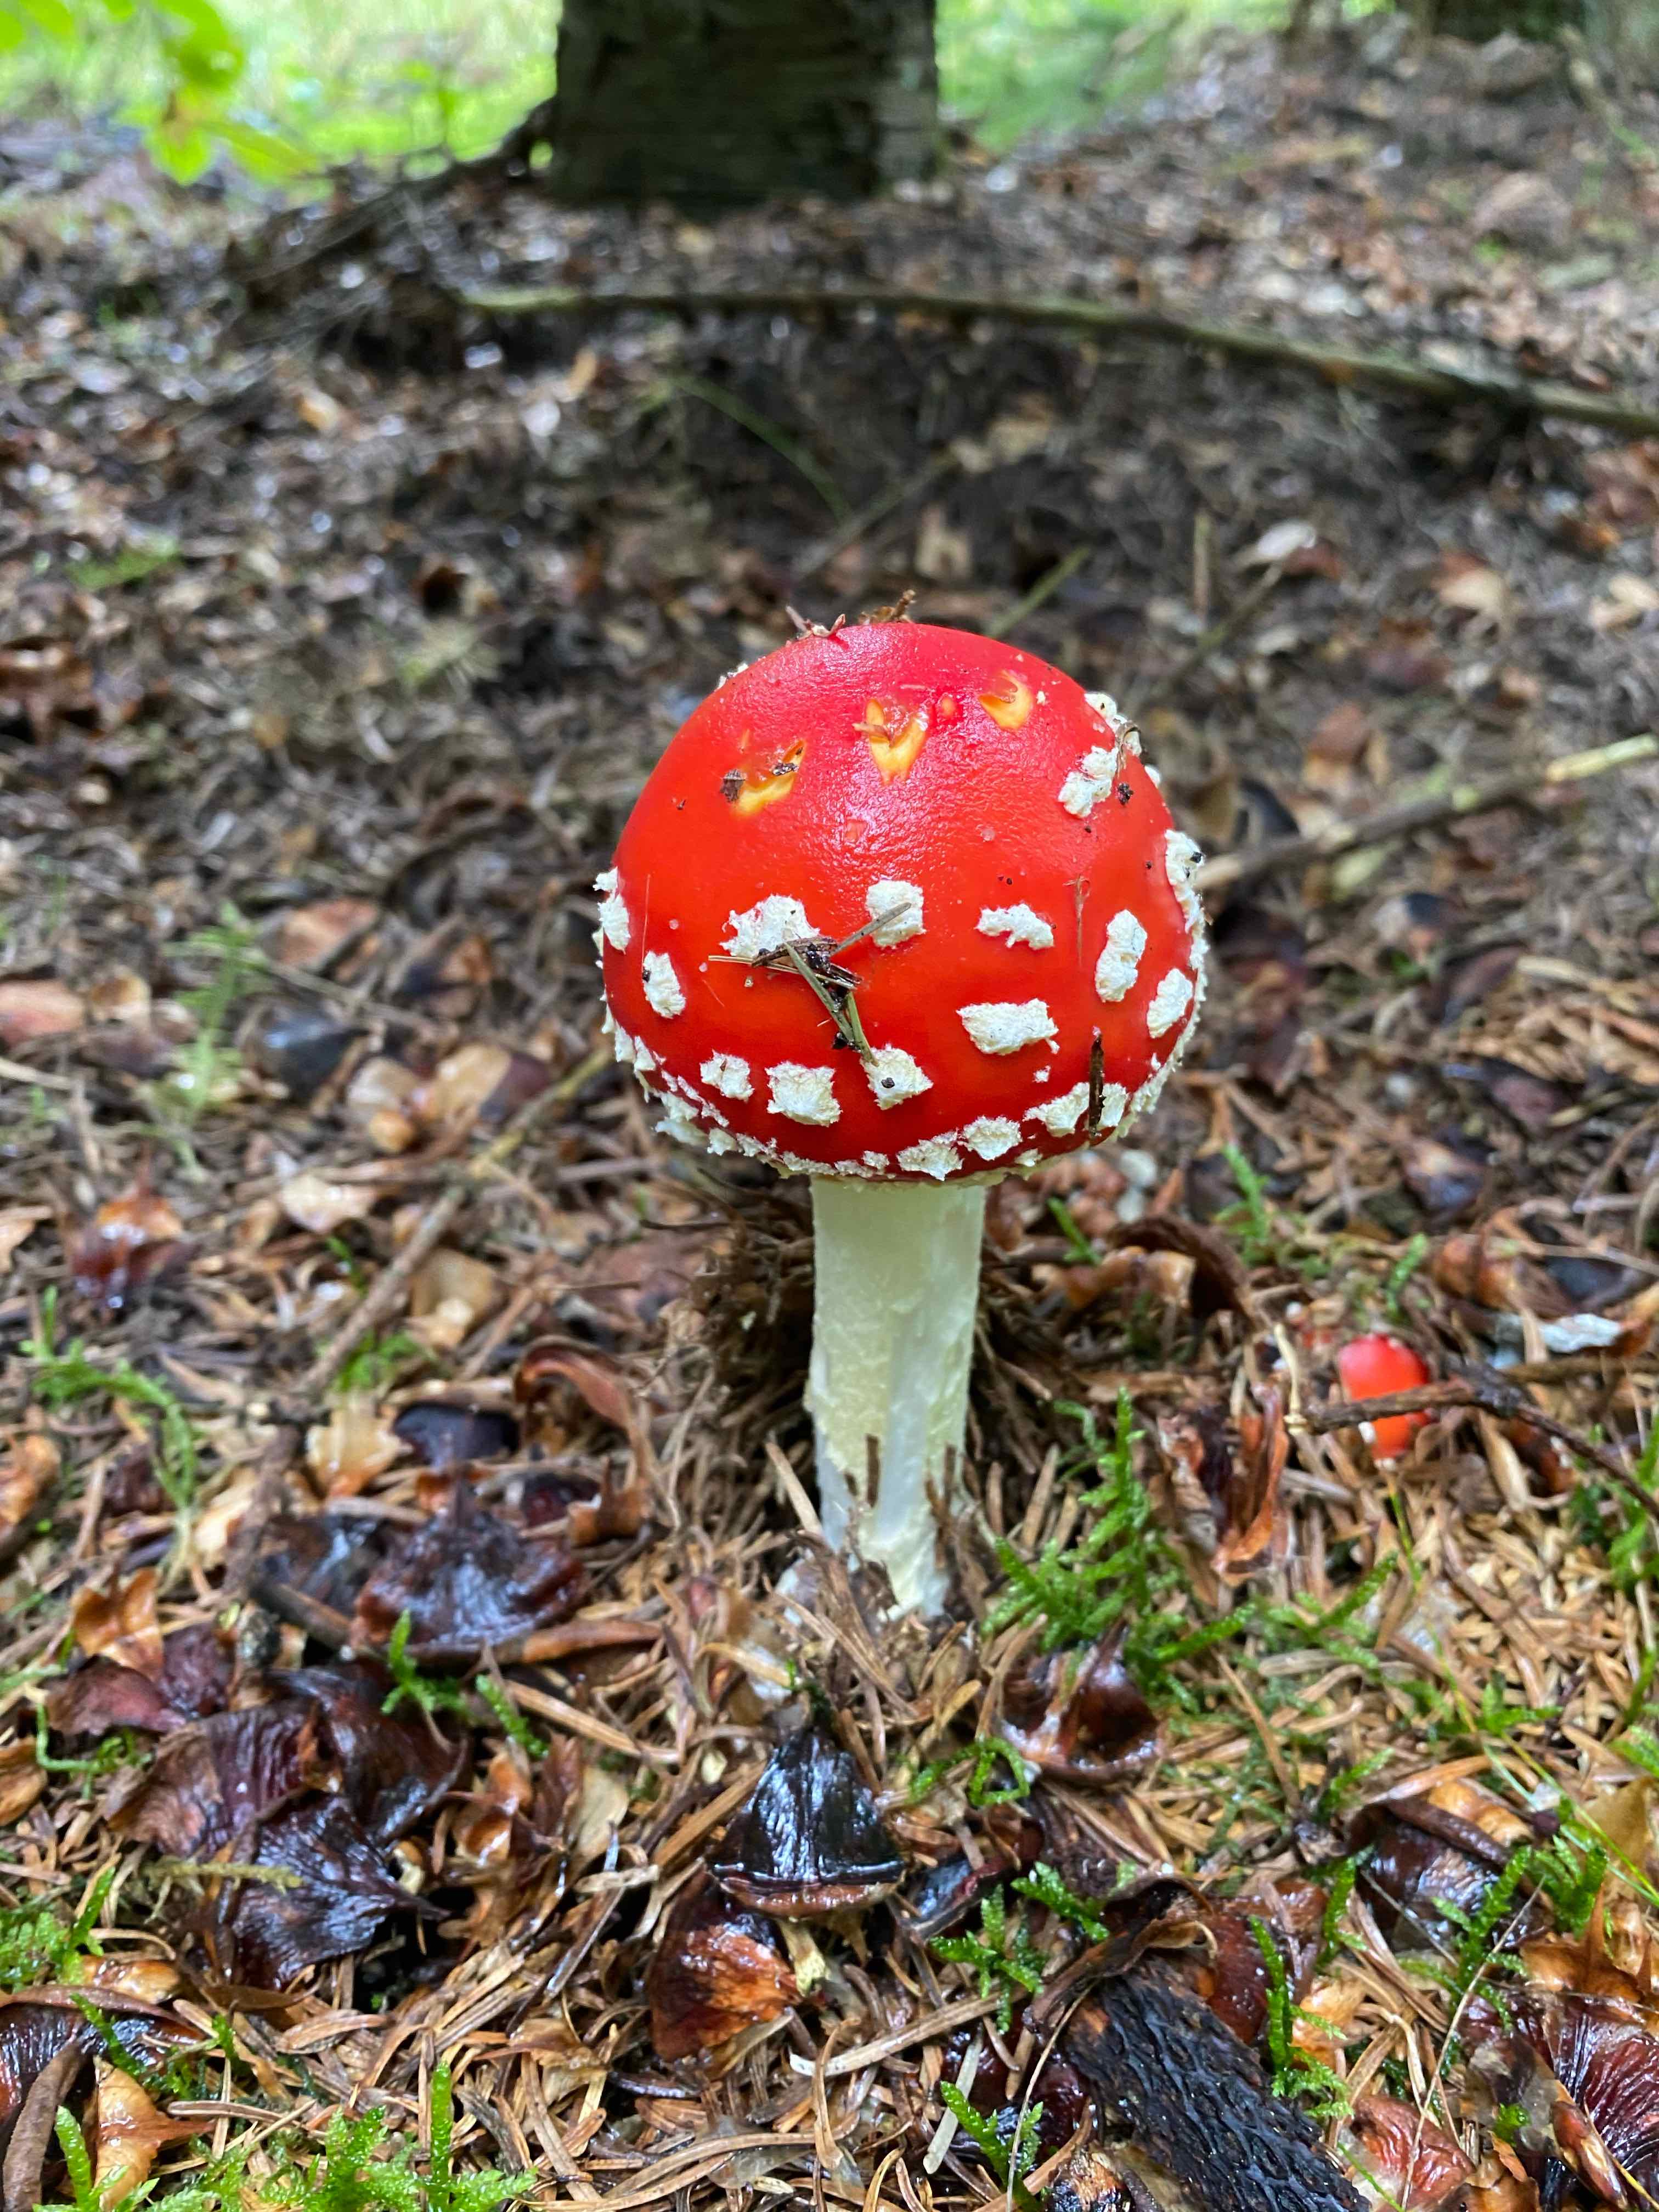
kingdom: Fungi
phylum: Basidiomycota
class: Agaricomycetes
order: Agaricales
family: Amanitaceae
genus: Amanita
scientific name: Amanita muscaria
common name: rød fluesvamp
